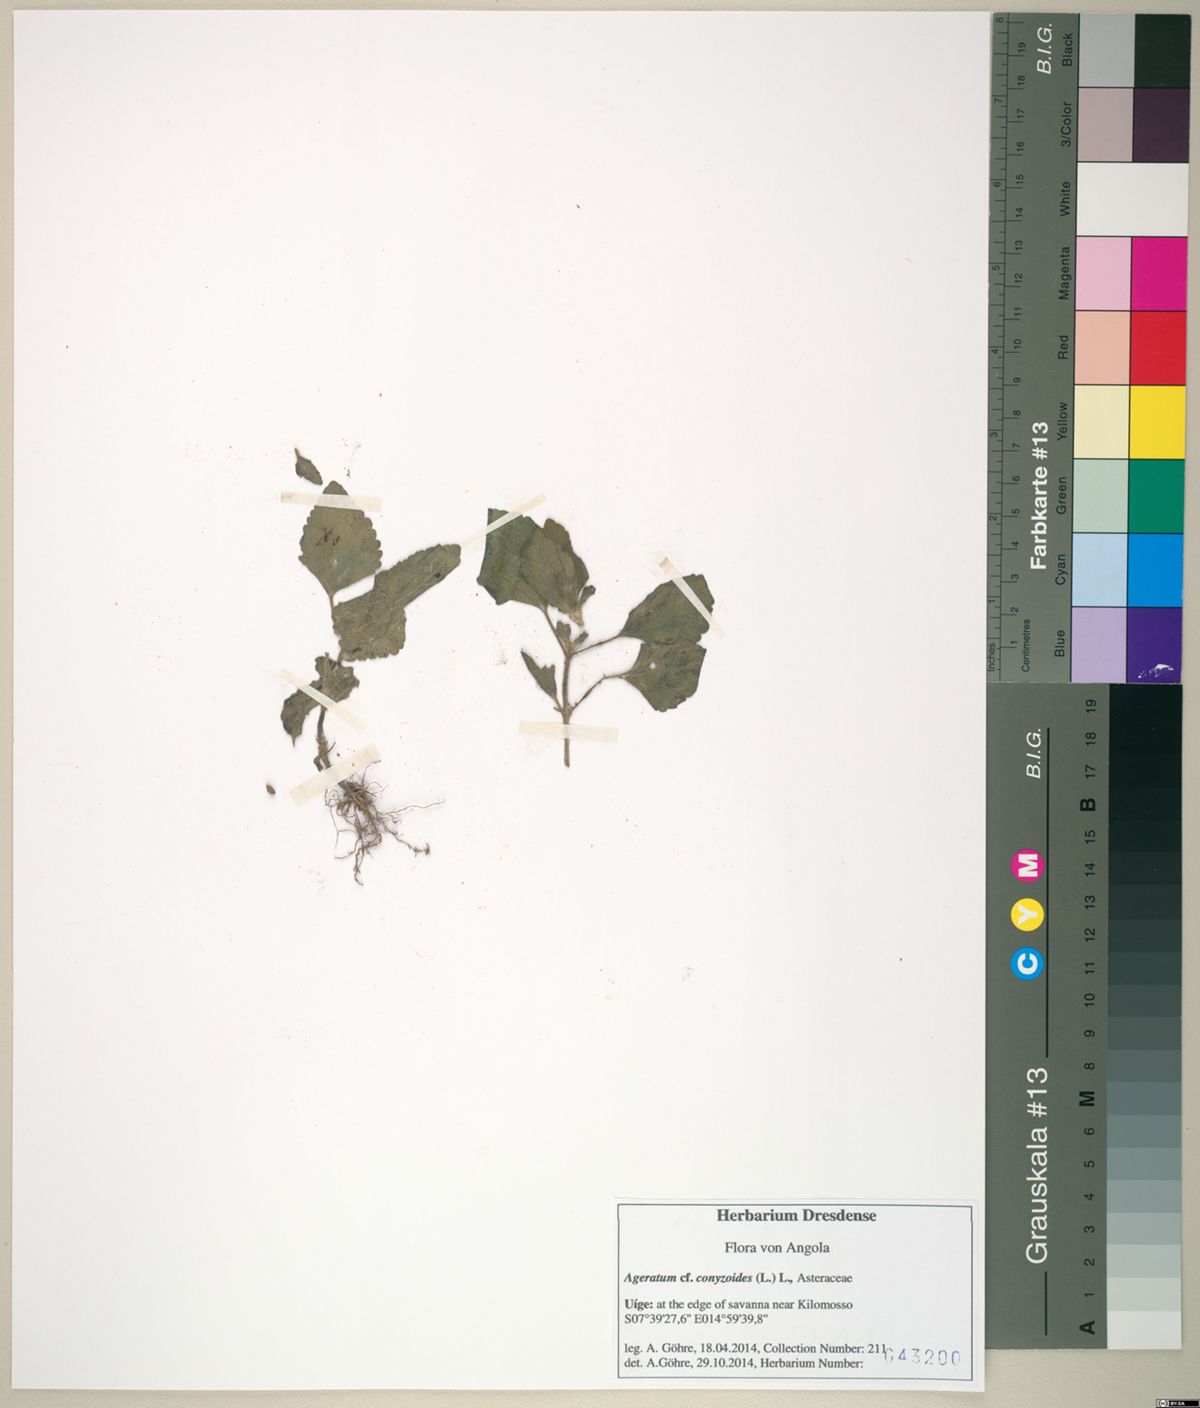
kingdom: Plantae
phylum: Tracheophyta
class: Magnoliopsida
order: Asterales
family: Asteraceae
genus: Ageratum
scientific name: Ageratum conyzoides
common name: Tropical whiteweed
